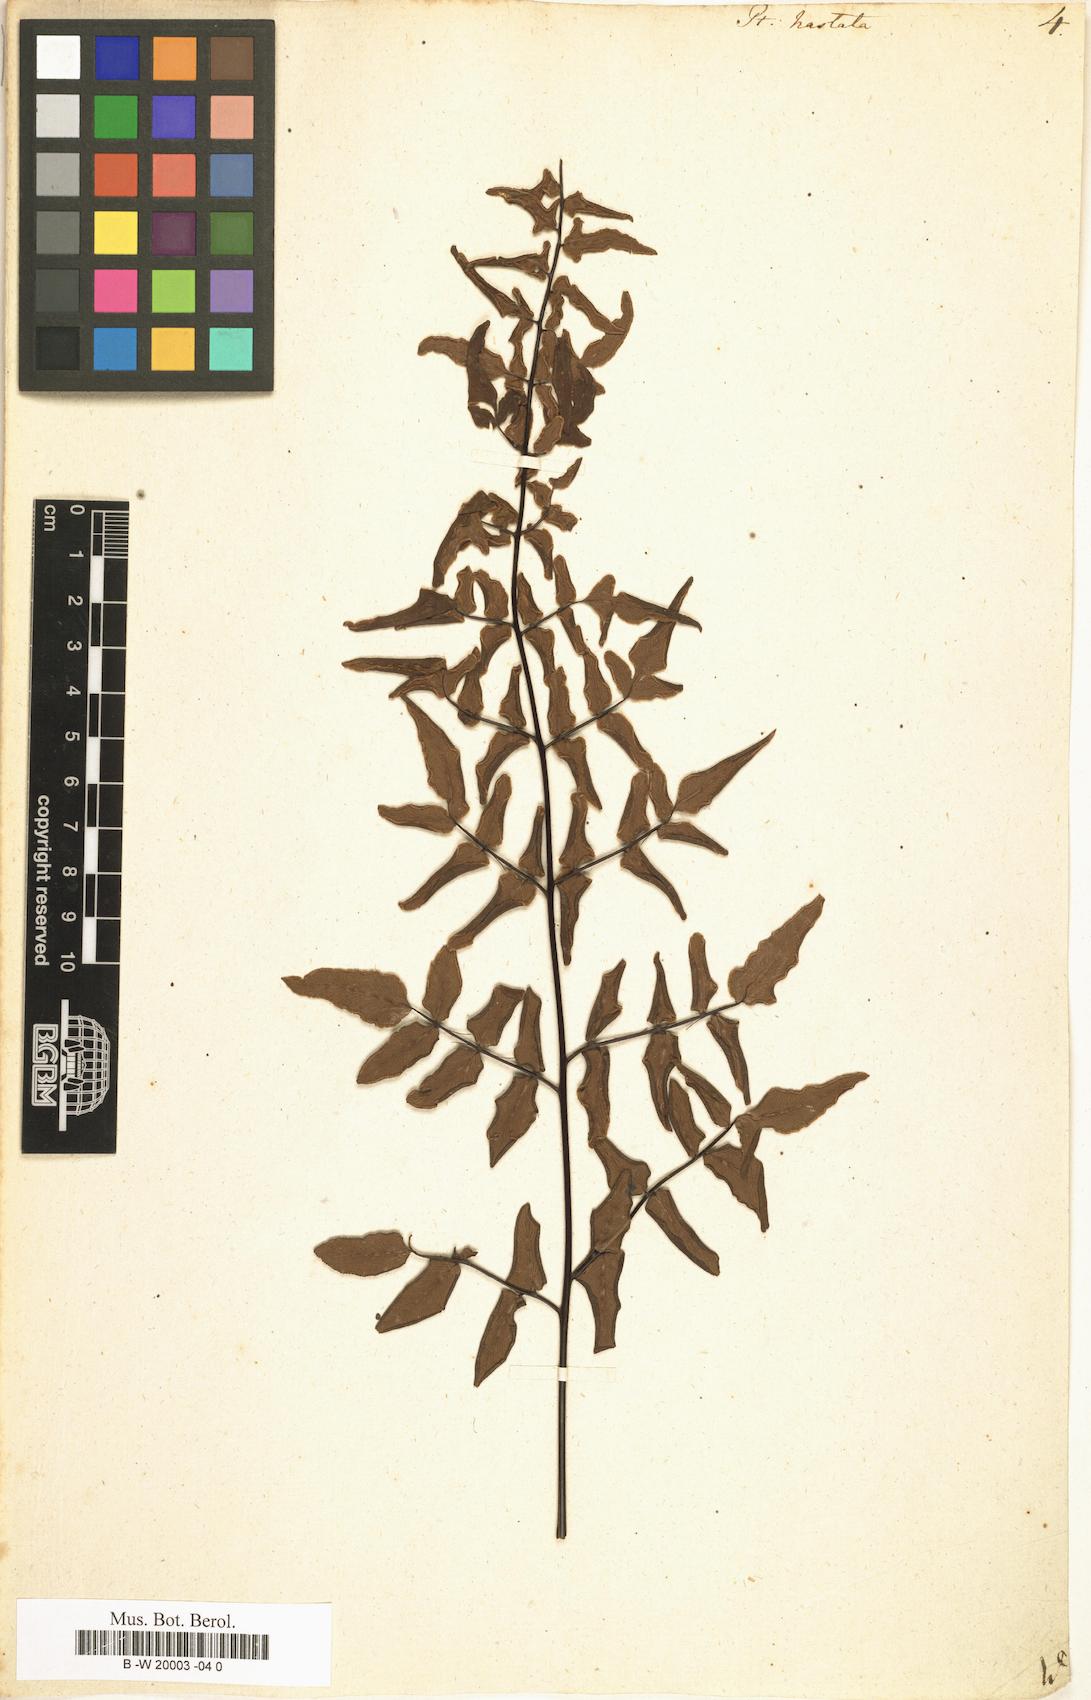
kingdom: Plantae
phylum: Tracheophyta
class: Polypodiopsida
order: Polypodiales
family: Pteridaceae
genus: Pteris
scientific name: Pteris hastata
